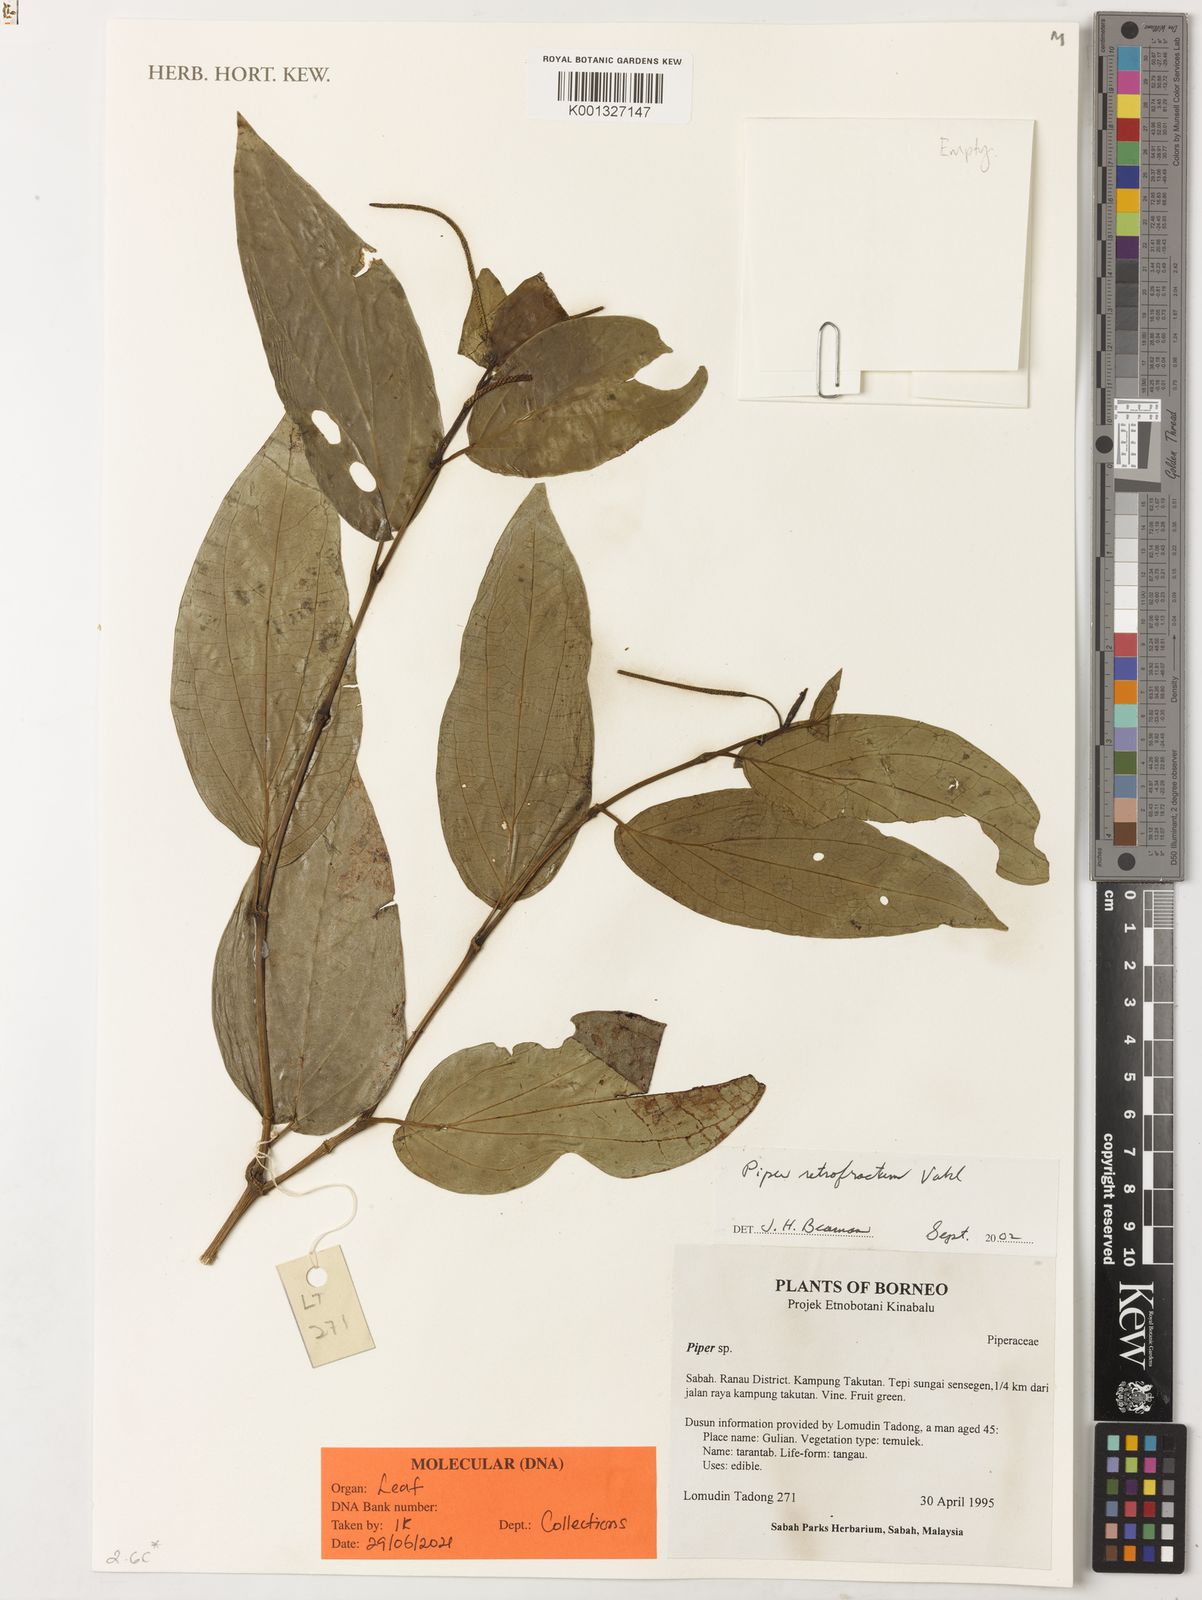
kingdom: Plantae
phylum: Tracheophyta
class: Magnoliopsida
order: Piperales
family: Piperaceae
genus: Piper
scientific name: Piper retrofractum
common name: Javanese long pepper
